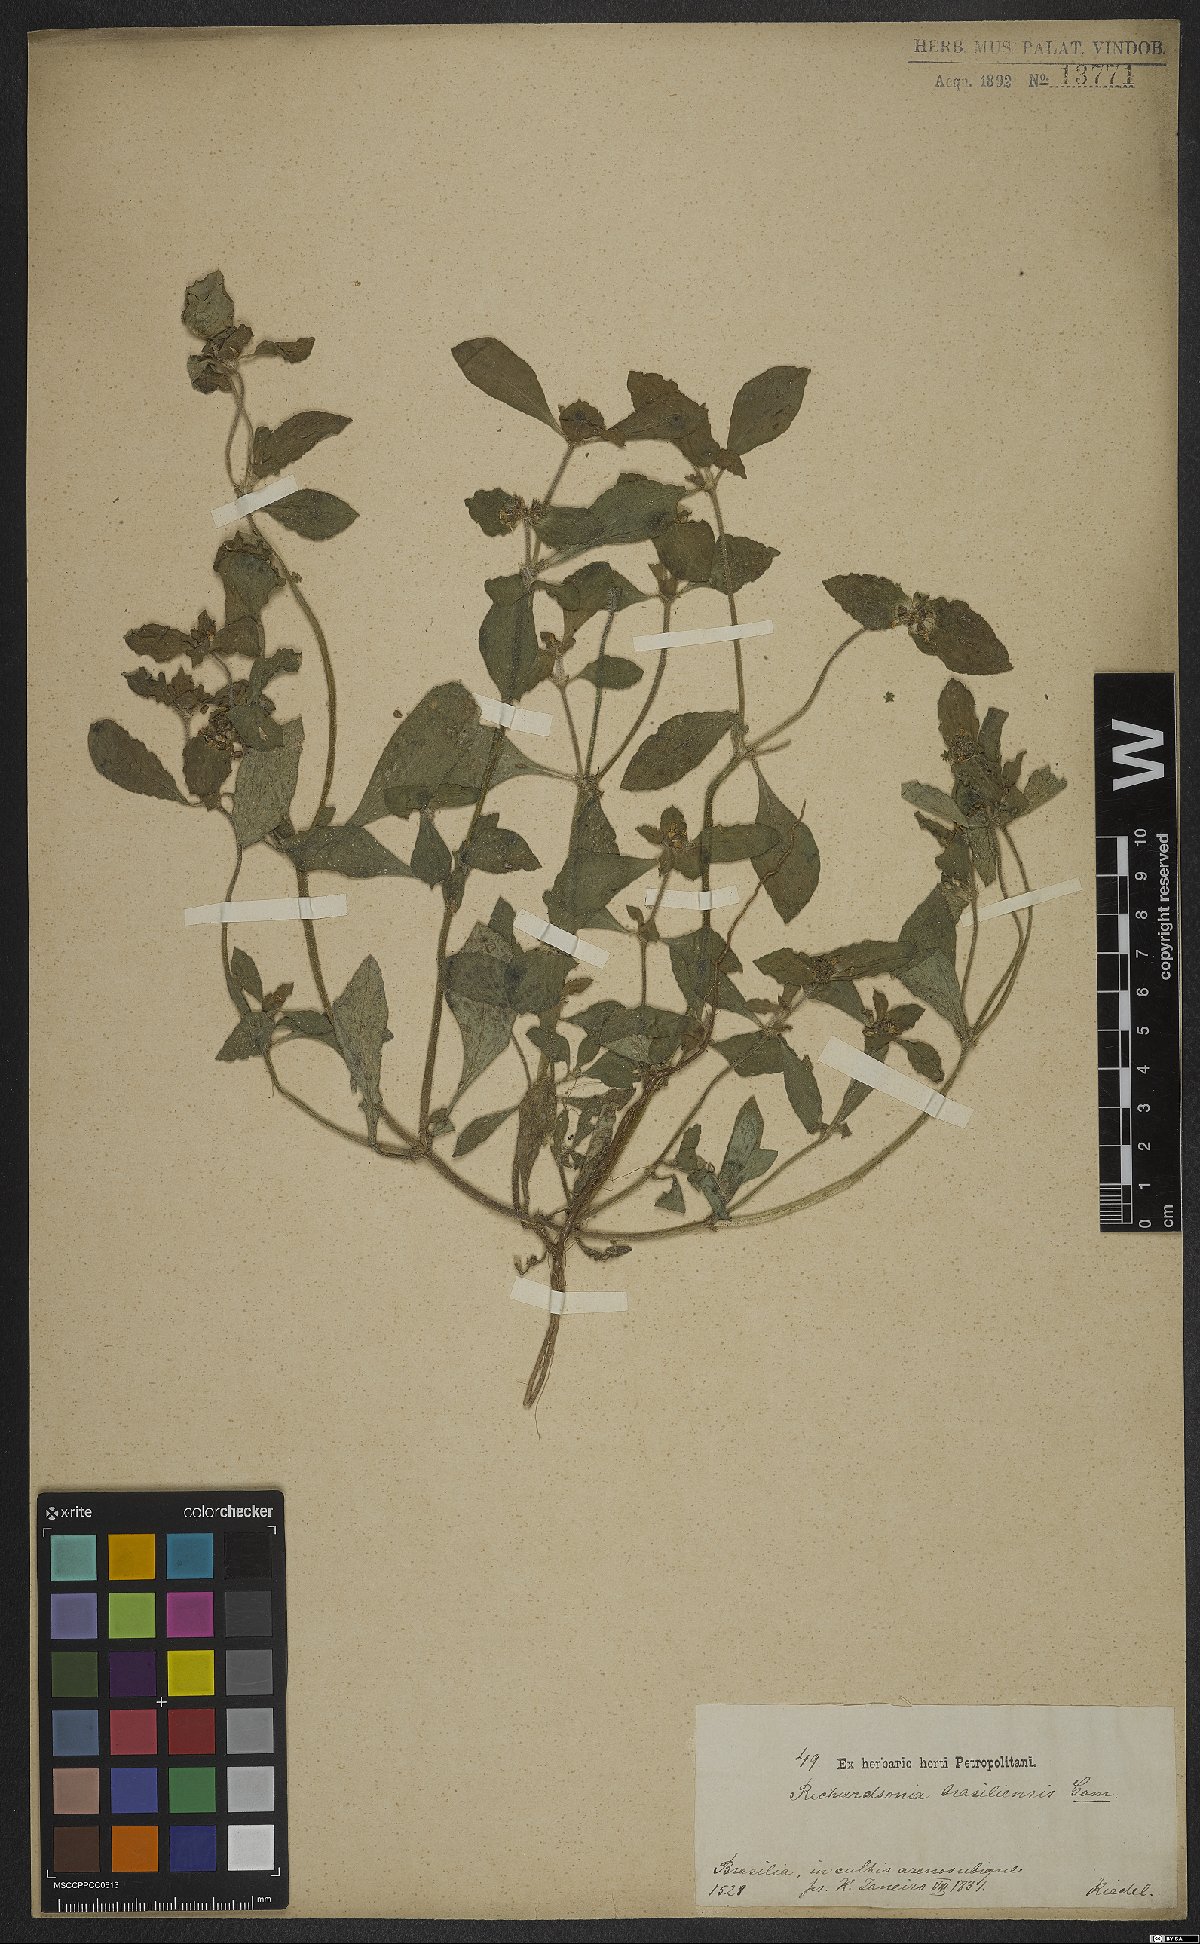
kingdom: Plantae
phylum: Tracheophyta
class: Magnoliopsida
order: Gentianales
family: Rubiaceae
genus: Richardia
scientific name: Richardia brasiliensis
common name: Tropical mexican clover
